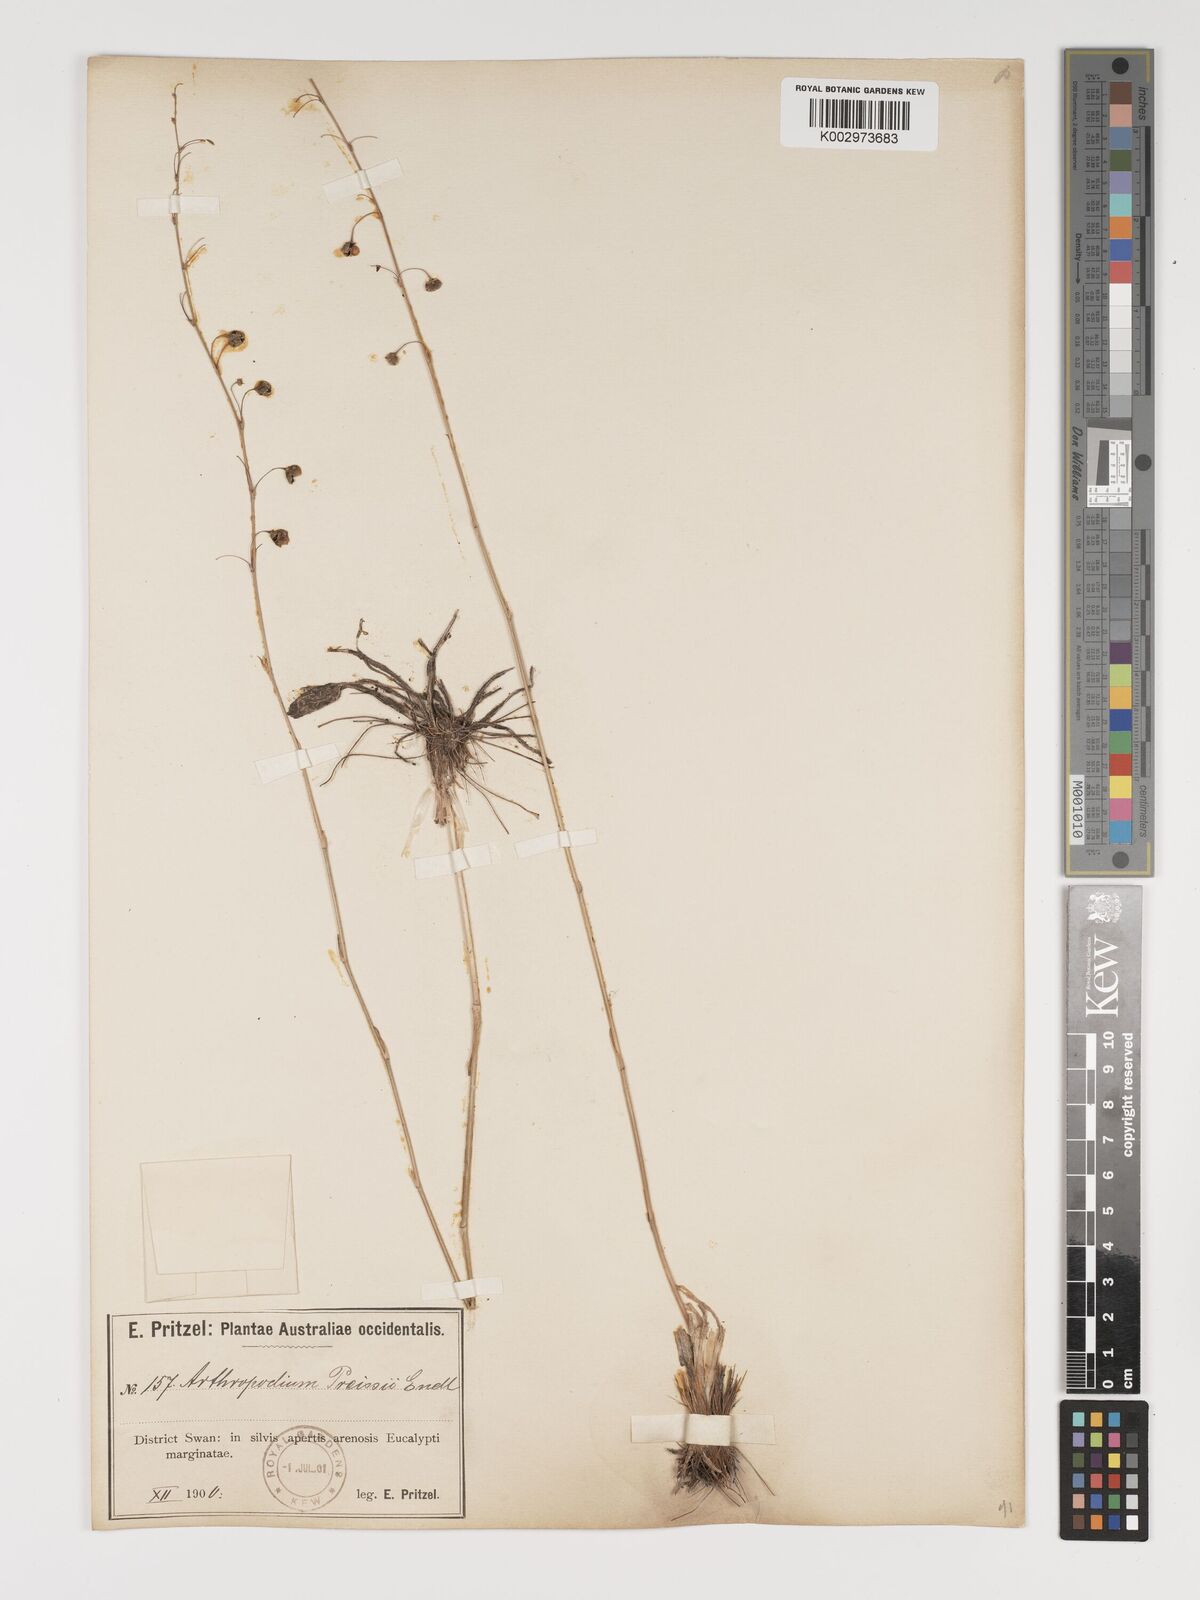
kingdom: Plantae
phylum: Tracheophyta
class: Liliopsida
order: Asparagales
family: Asparagaceae
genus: Dichopogon
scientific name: Dichopogon capillipes
